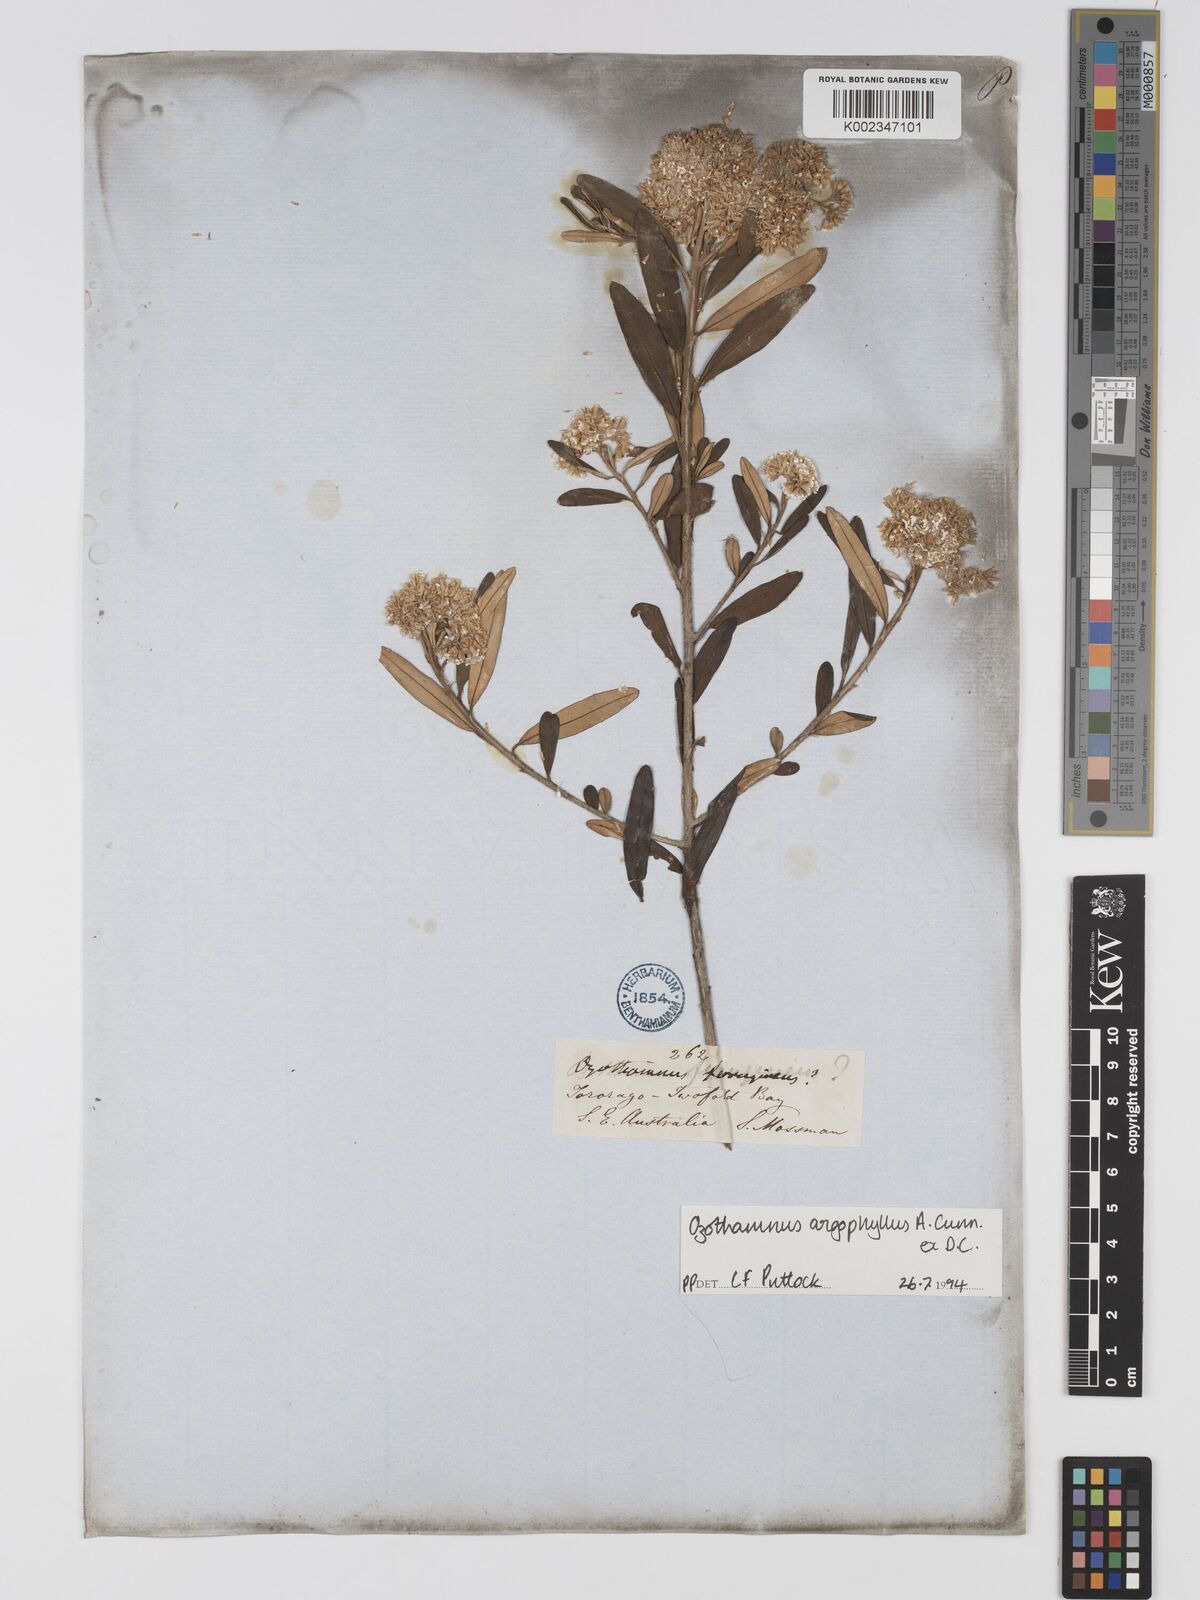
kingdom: Plantae
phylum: Tracheophyta
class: Magnoliopsida
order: Asterales
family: Asteraceae
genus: Ozothamnus
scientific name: Ozothamnus argophyllus
